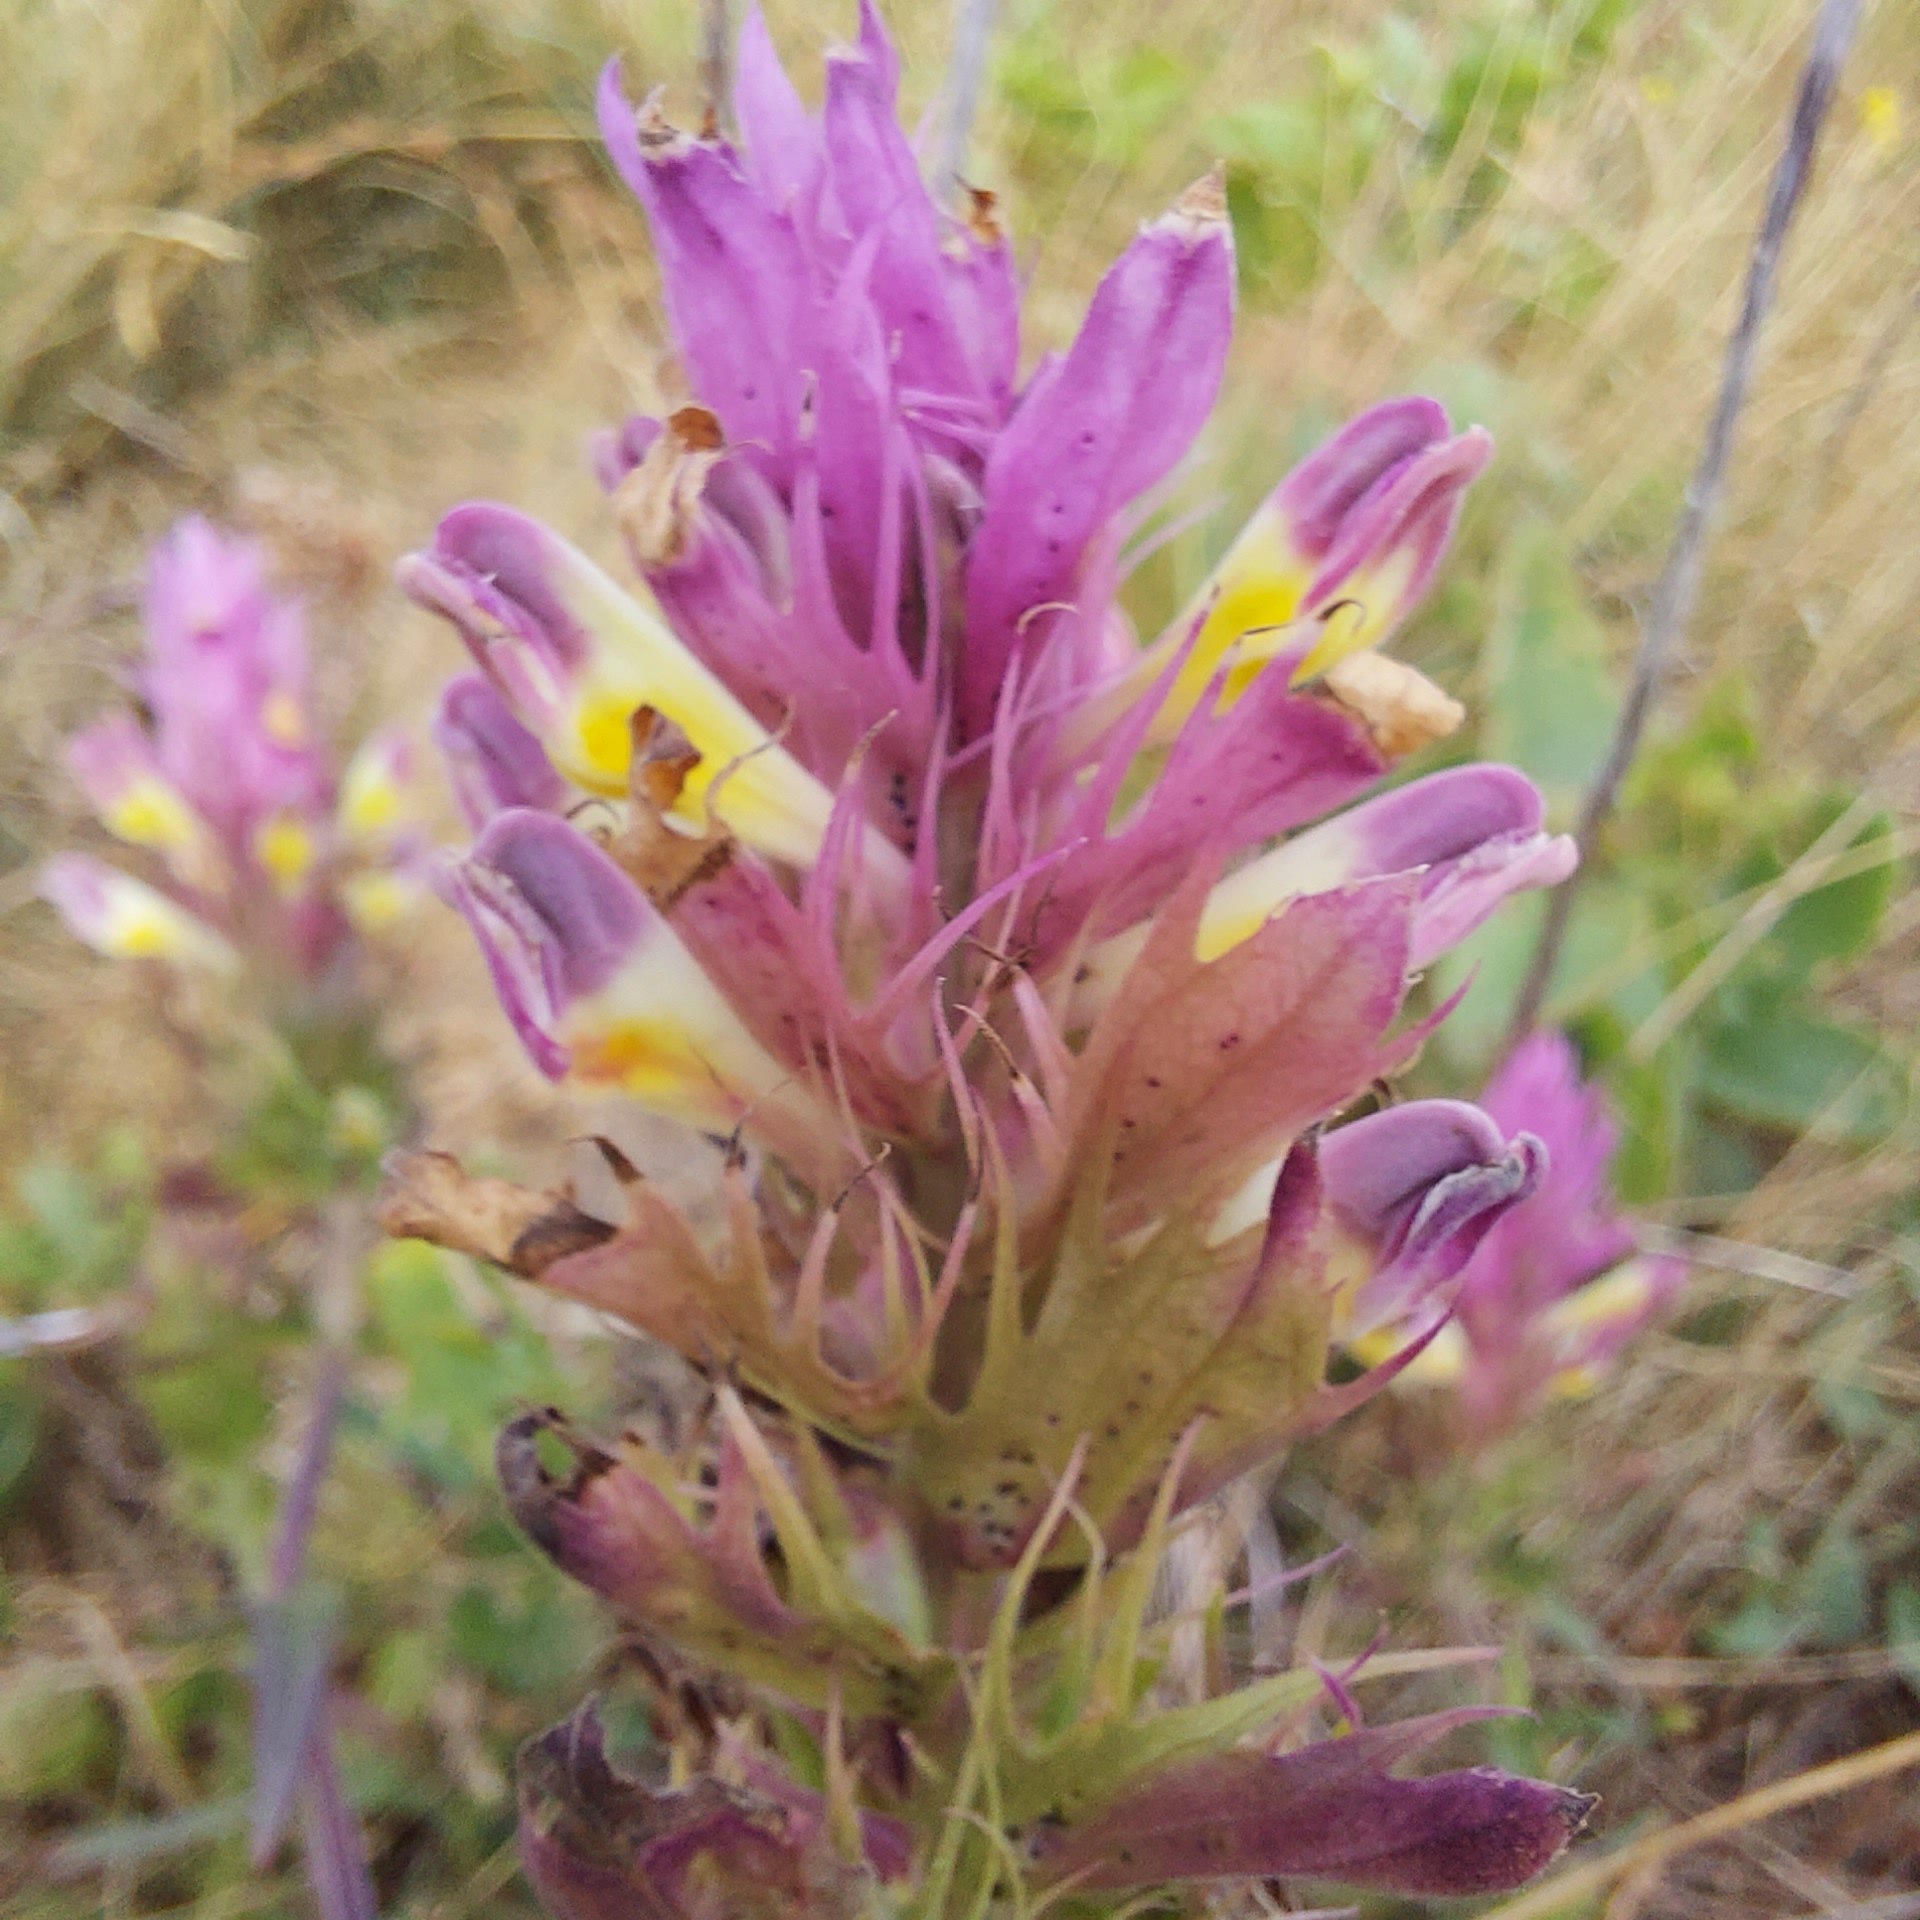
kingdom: Plantae
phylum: Tracheophyta
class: Magnoliopsida
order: Lamiales
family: Orobanchaceae
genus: Melampyrum
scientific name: Melampyrum arvense
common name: Ager-kohvede
